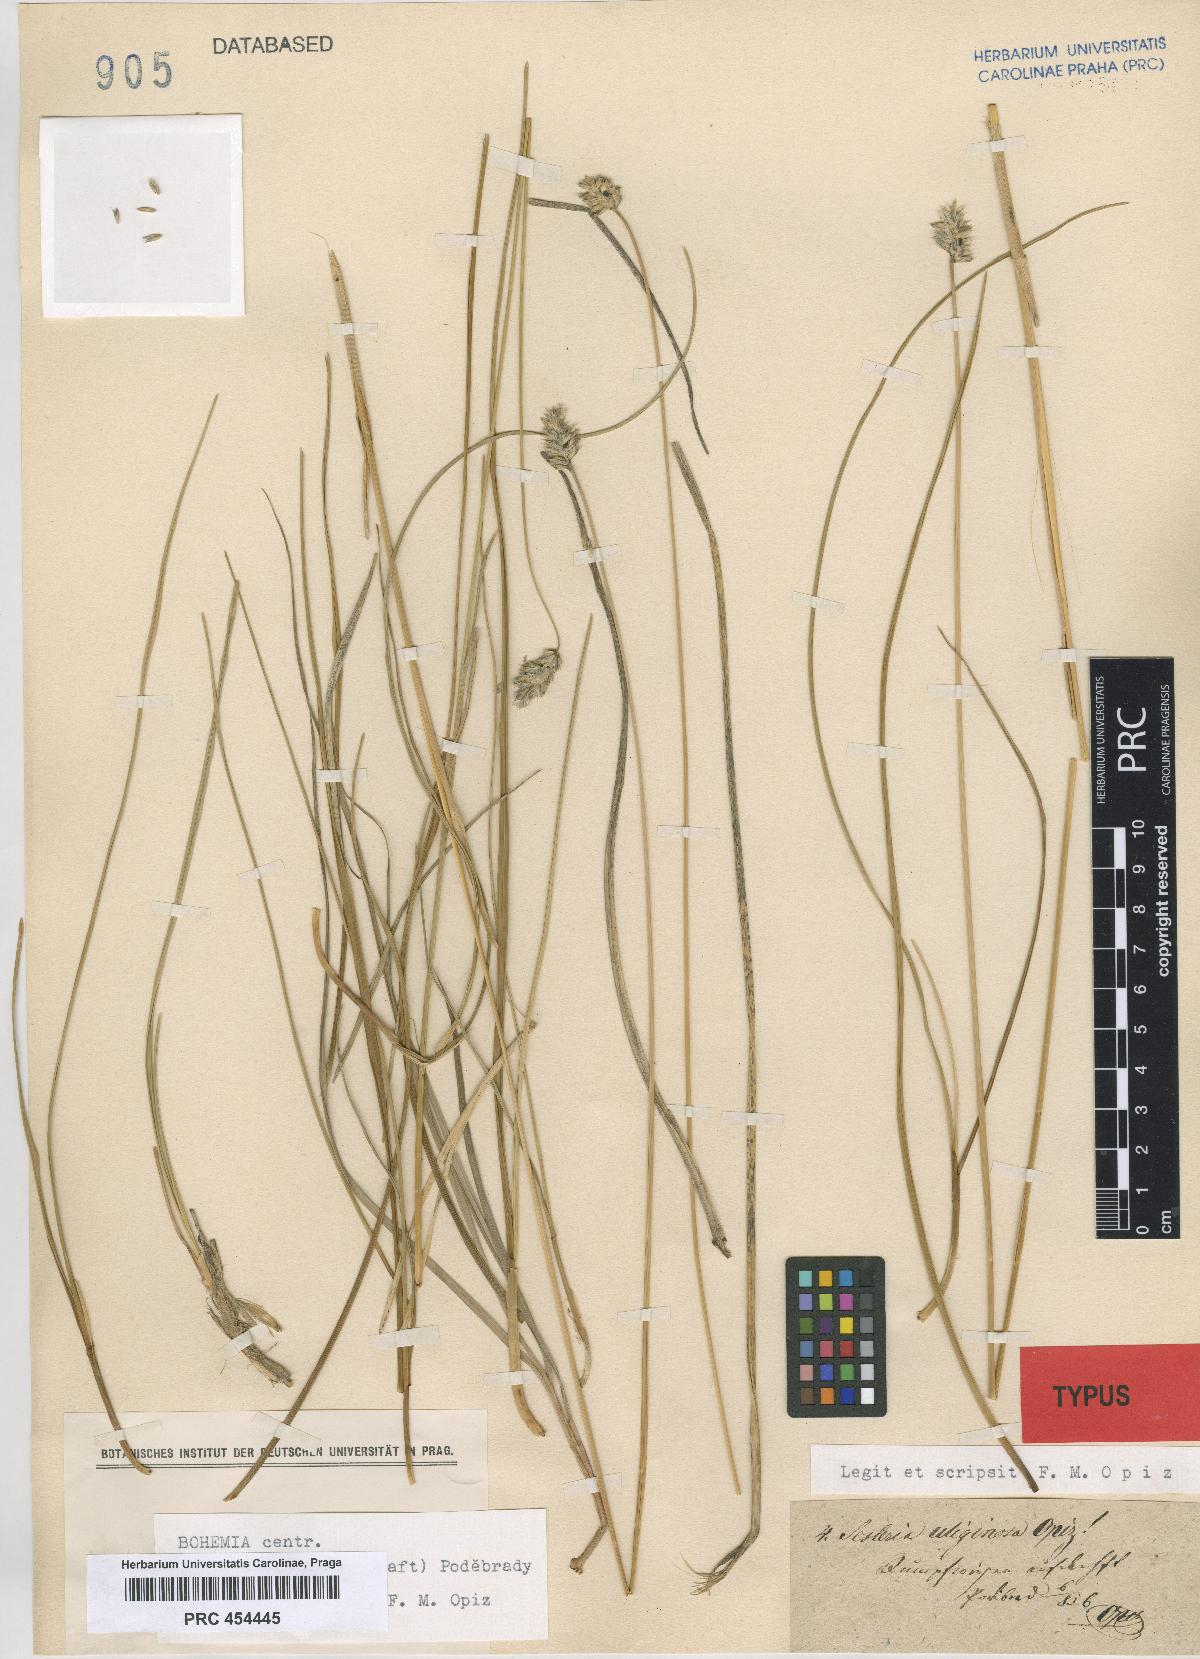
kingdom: Plantae
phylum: Tracheophyta
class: Liliopsida
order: Poales
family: Poaceae
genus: Sesleria
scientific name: Sesleria uliginosa
